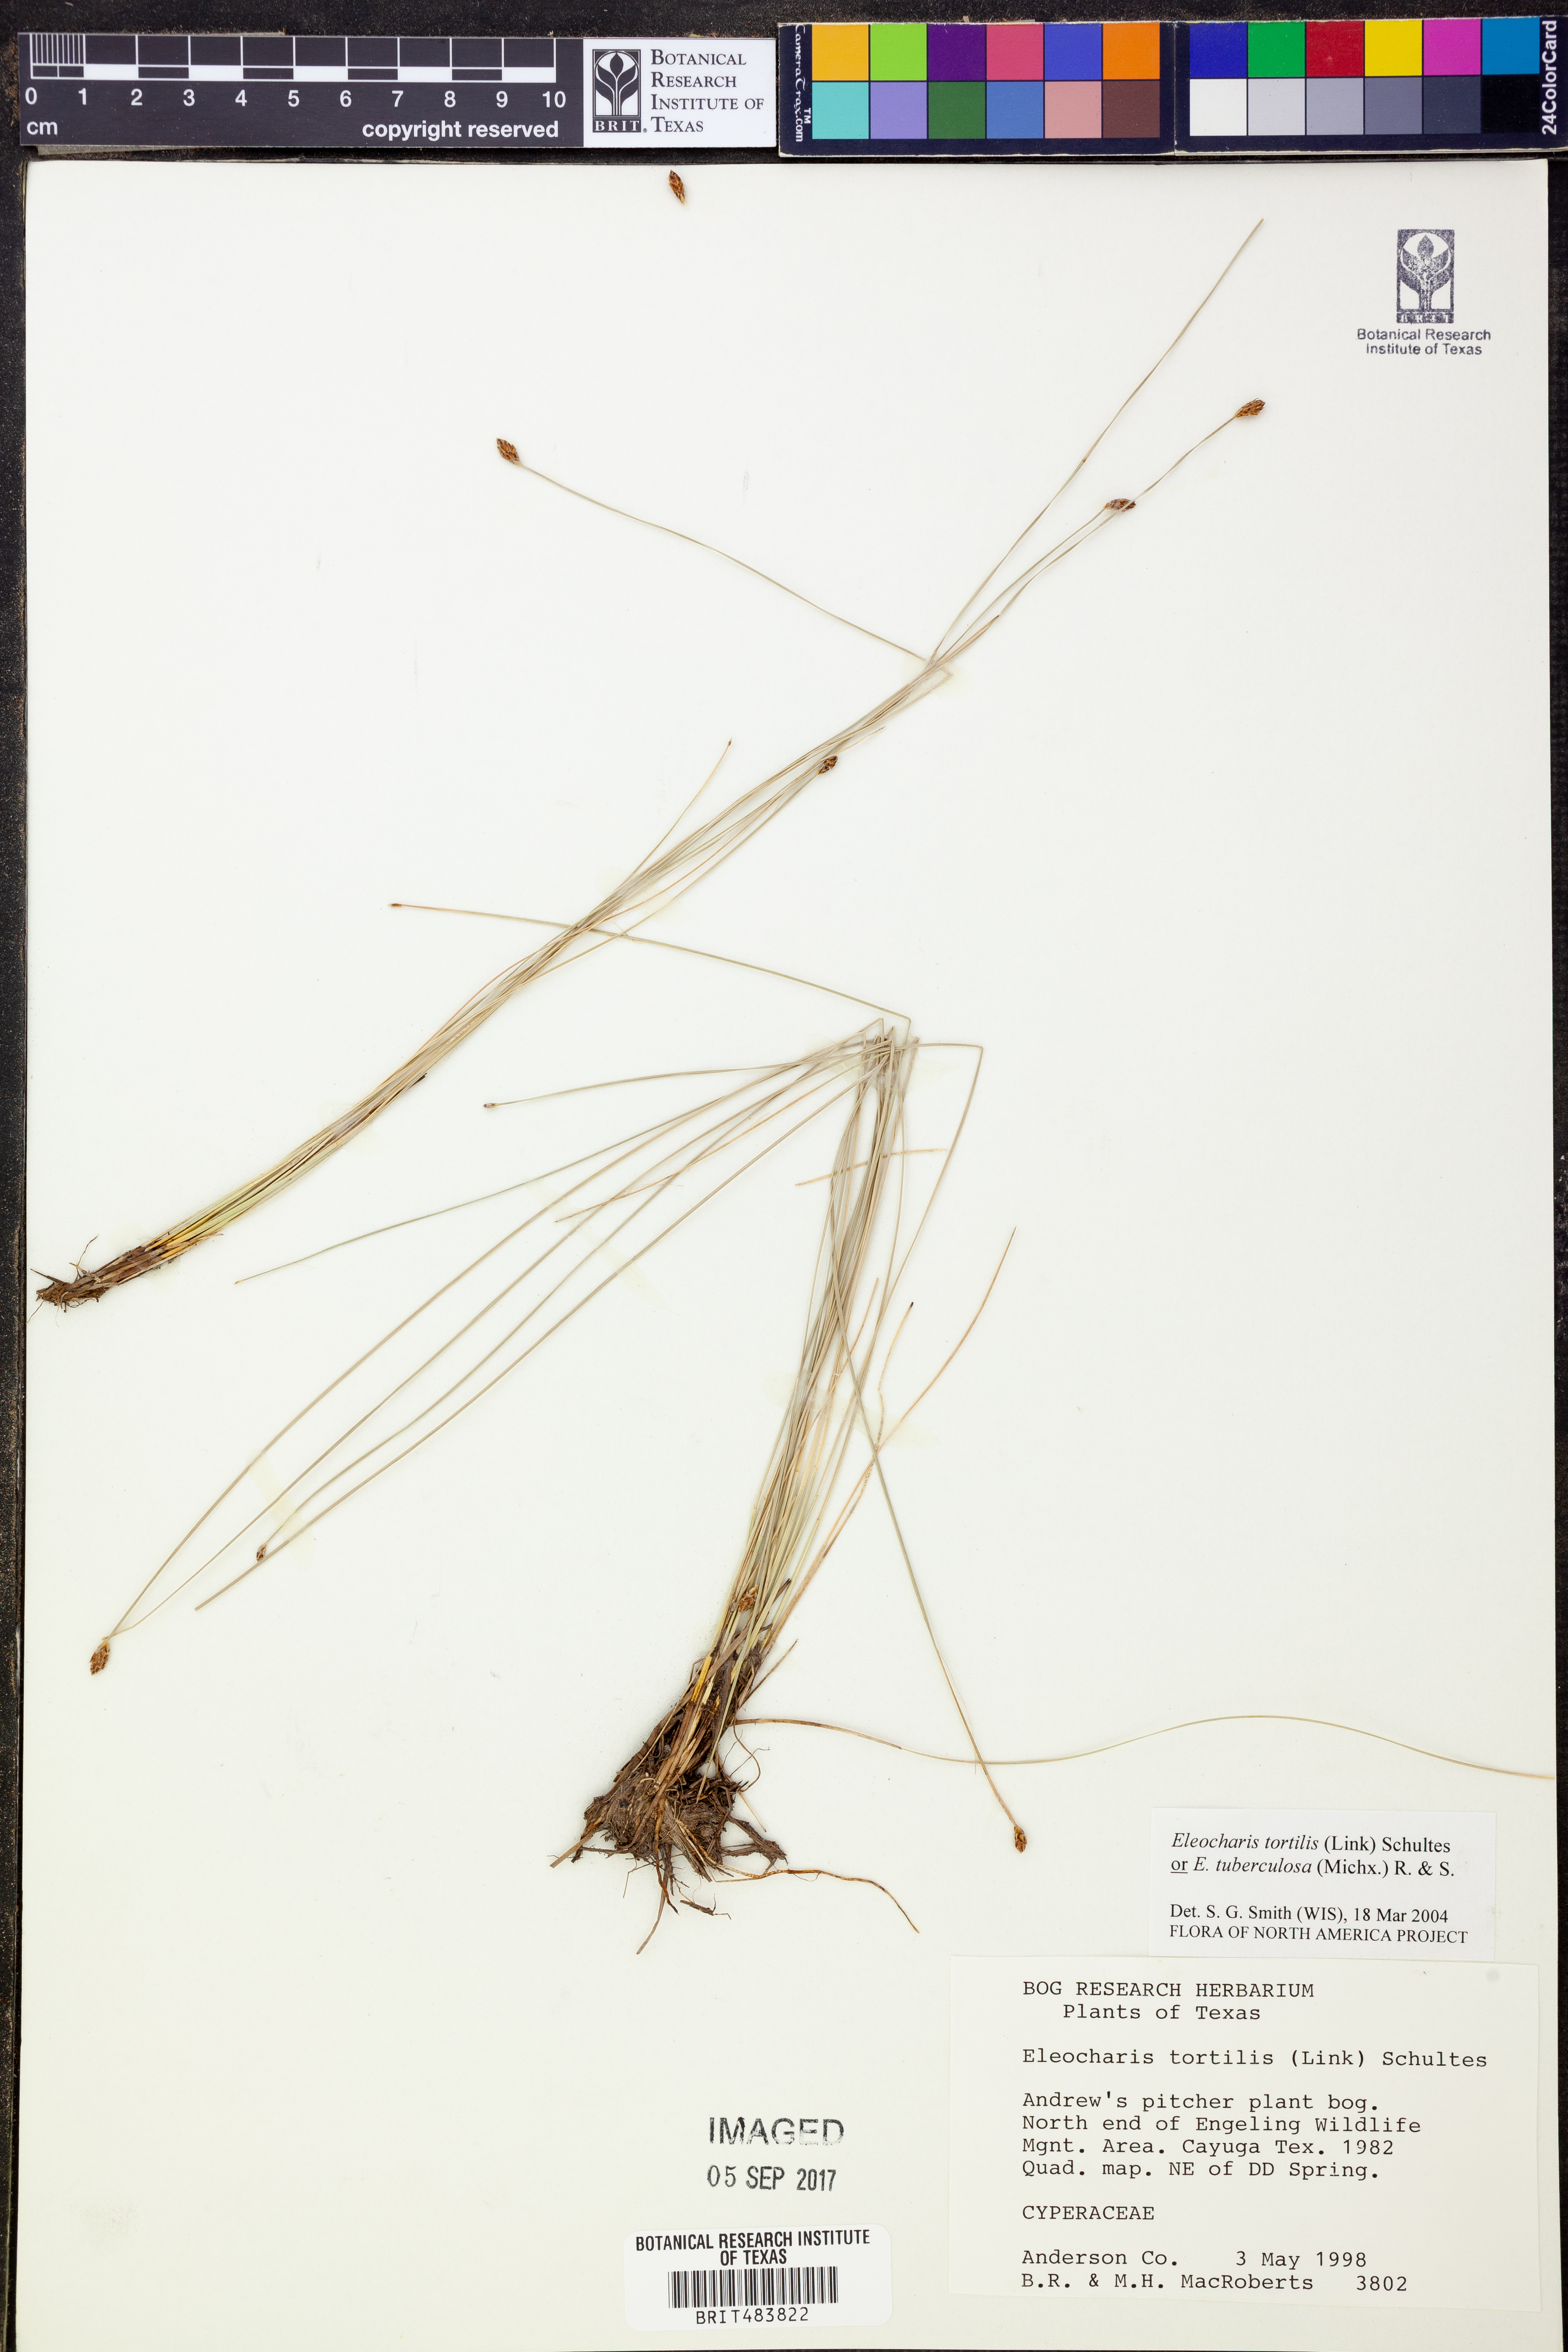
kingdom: Plantae
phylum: Tracheophyta
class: Liliopsida
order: Poales
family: Cyperaceae
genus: Eleocharis
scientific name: Eleocharis
